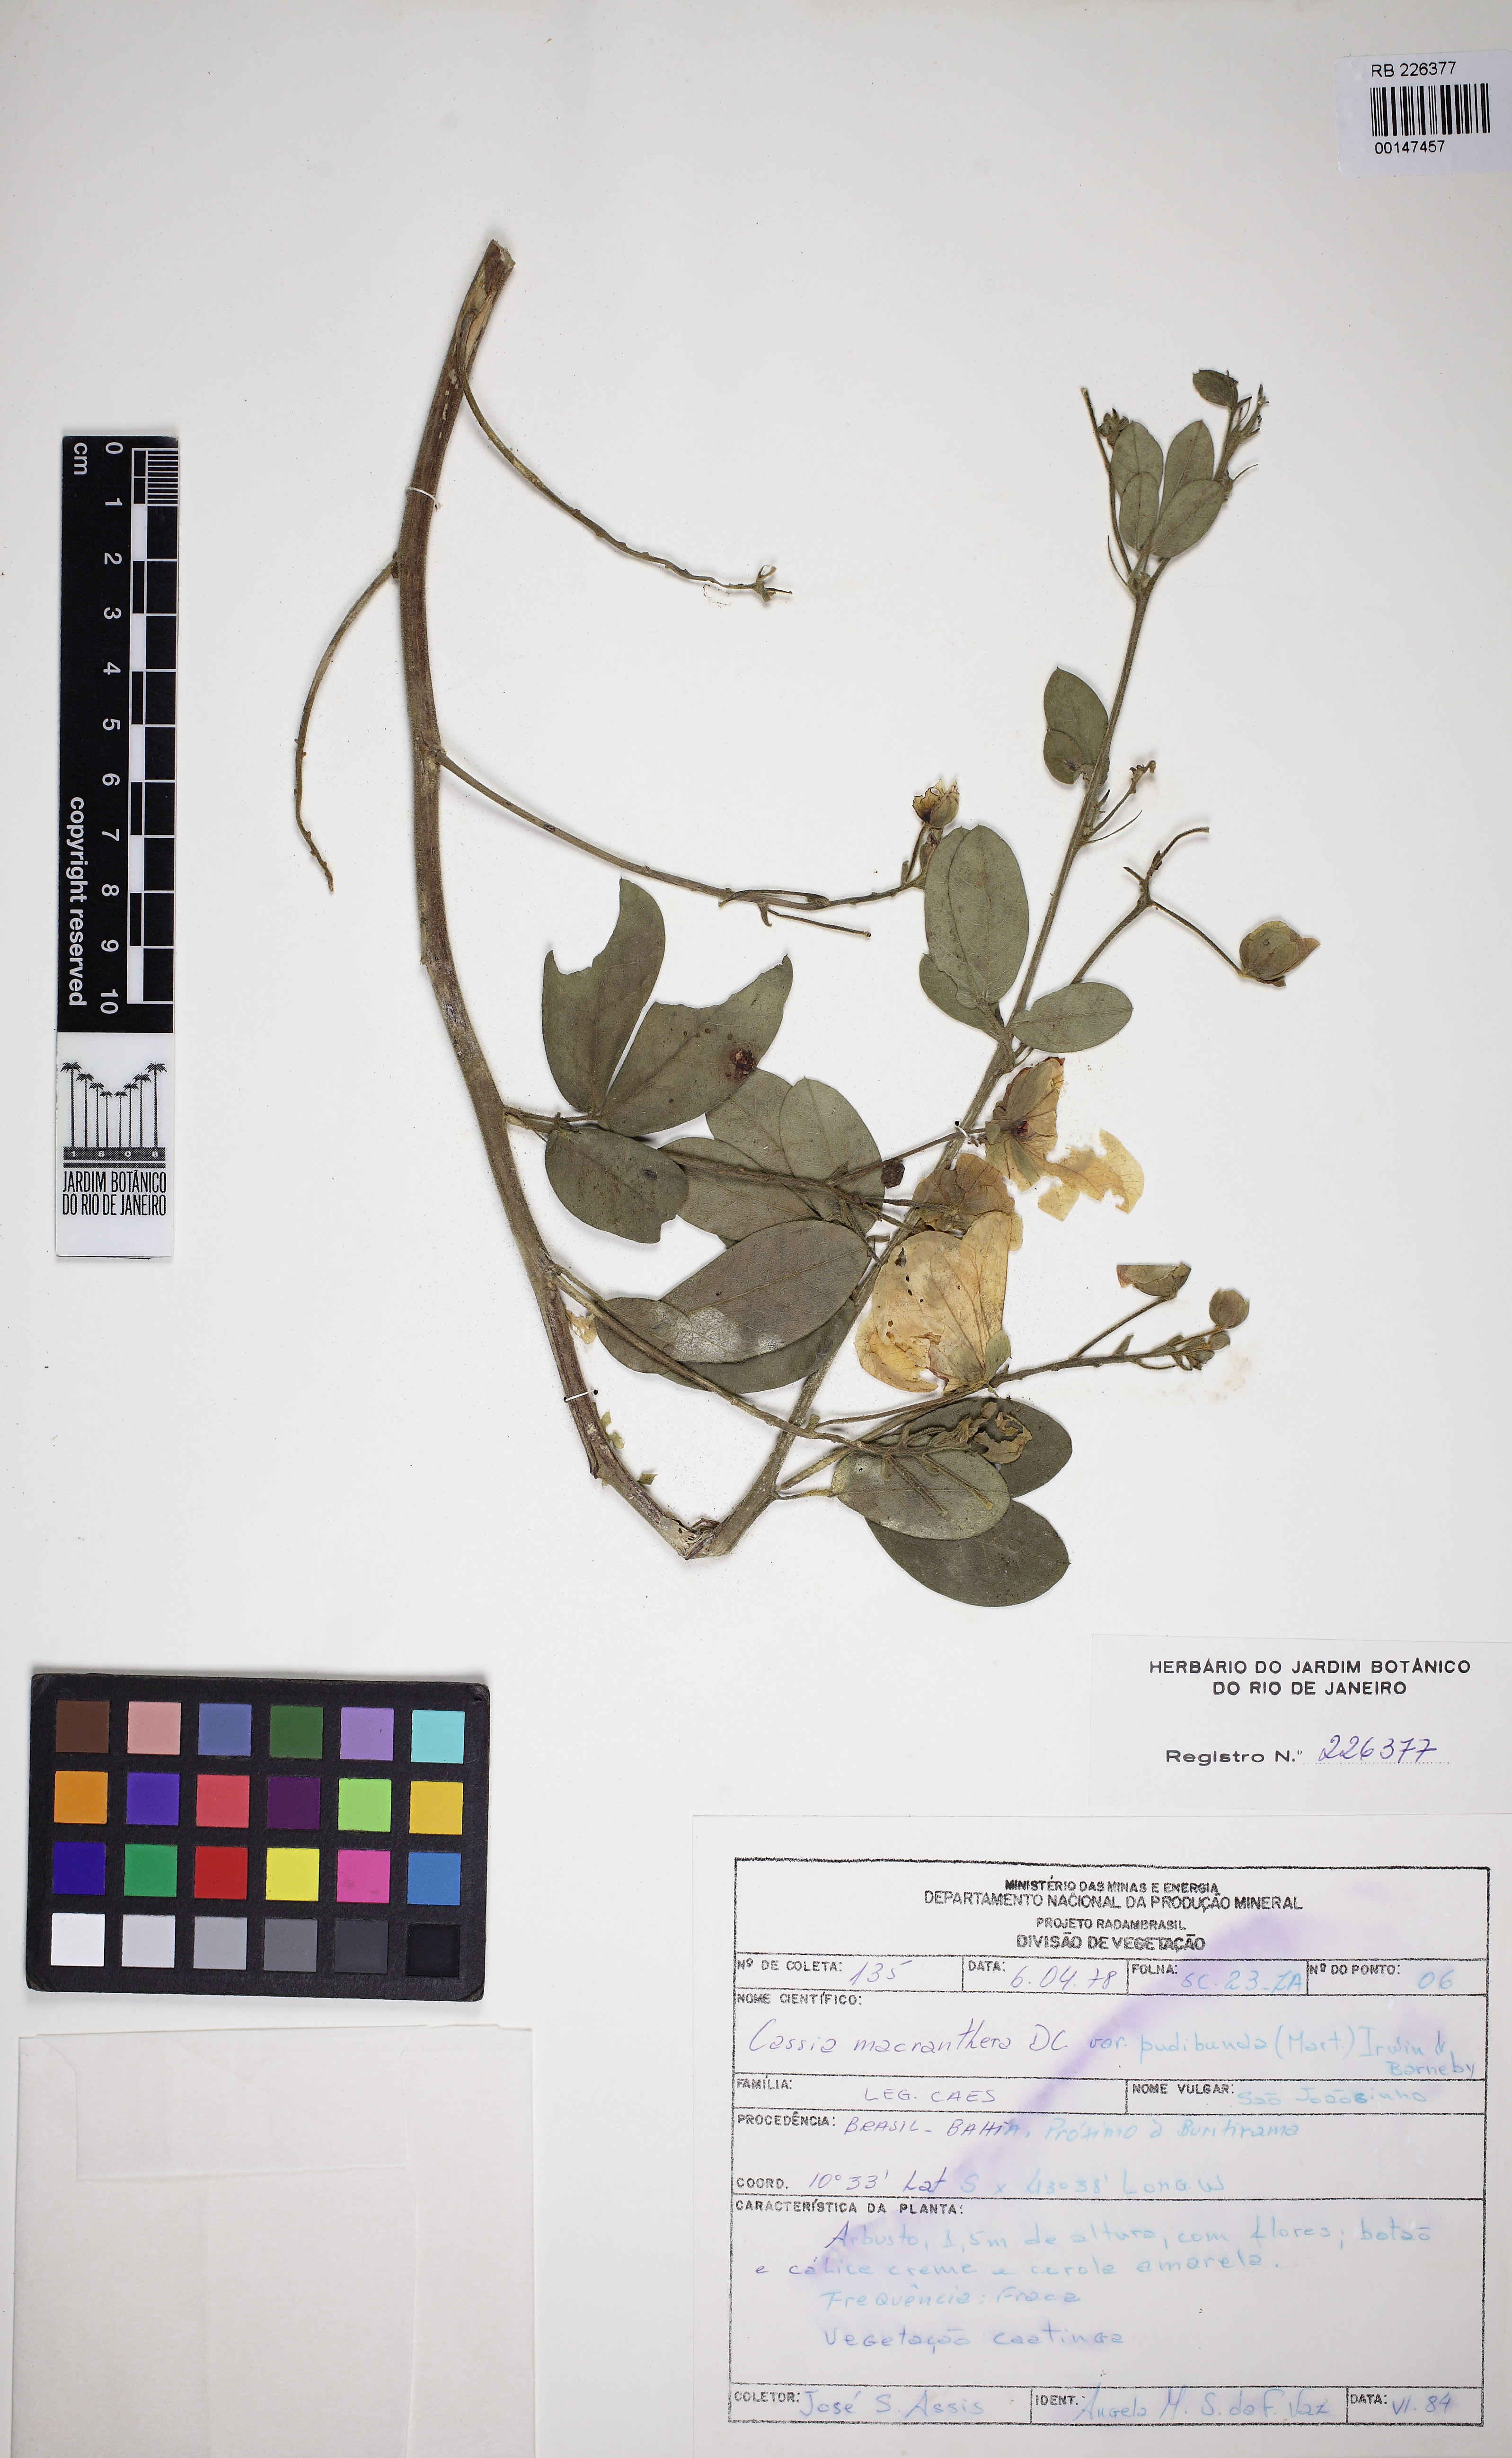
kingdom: Plantae
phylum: Tracheophyta
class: Magnoliopsida
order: Fabales
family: Fabaceae
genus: Senna
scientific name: Senna macranthera
